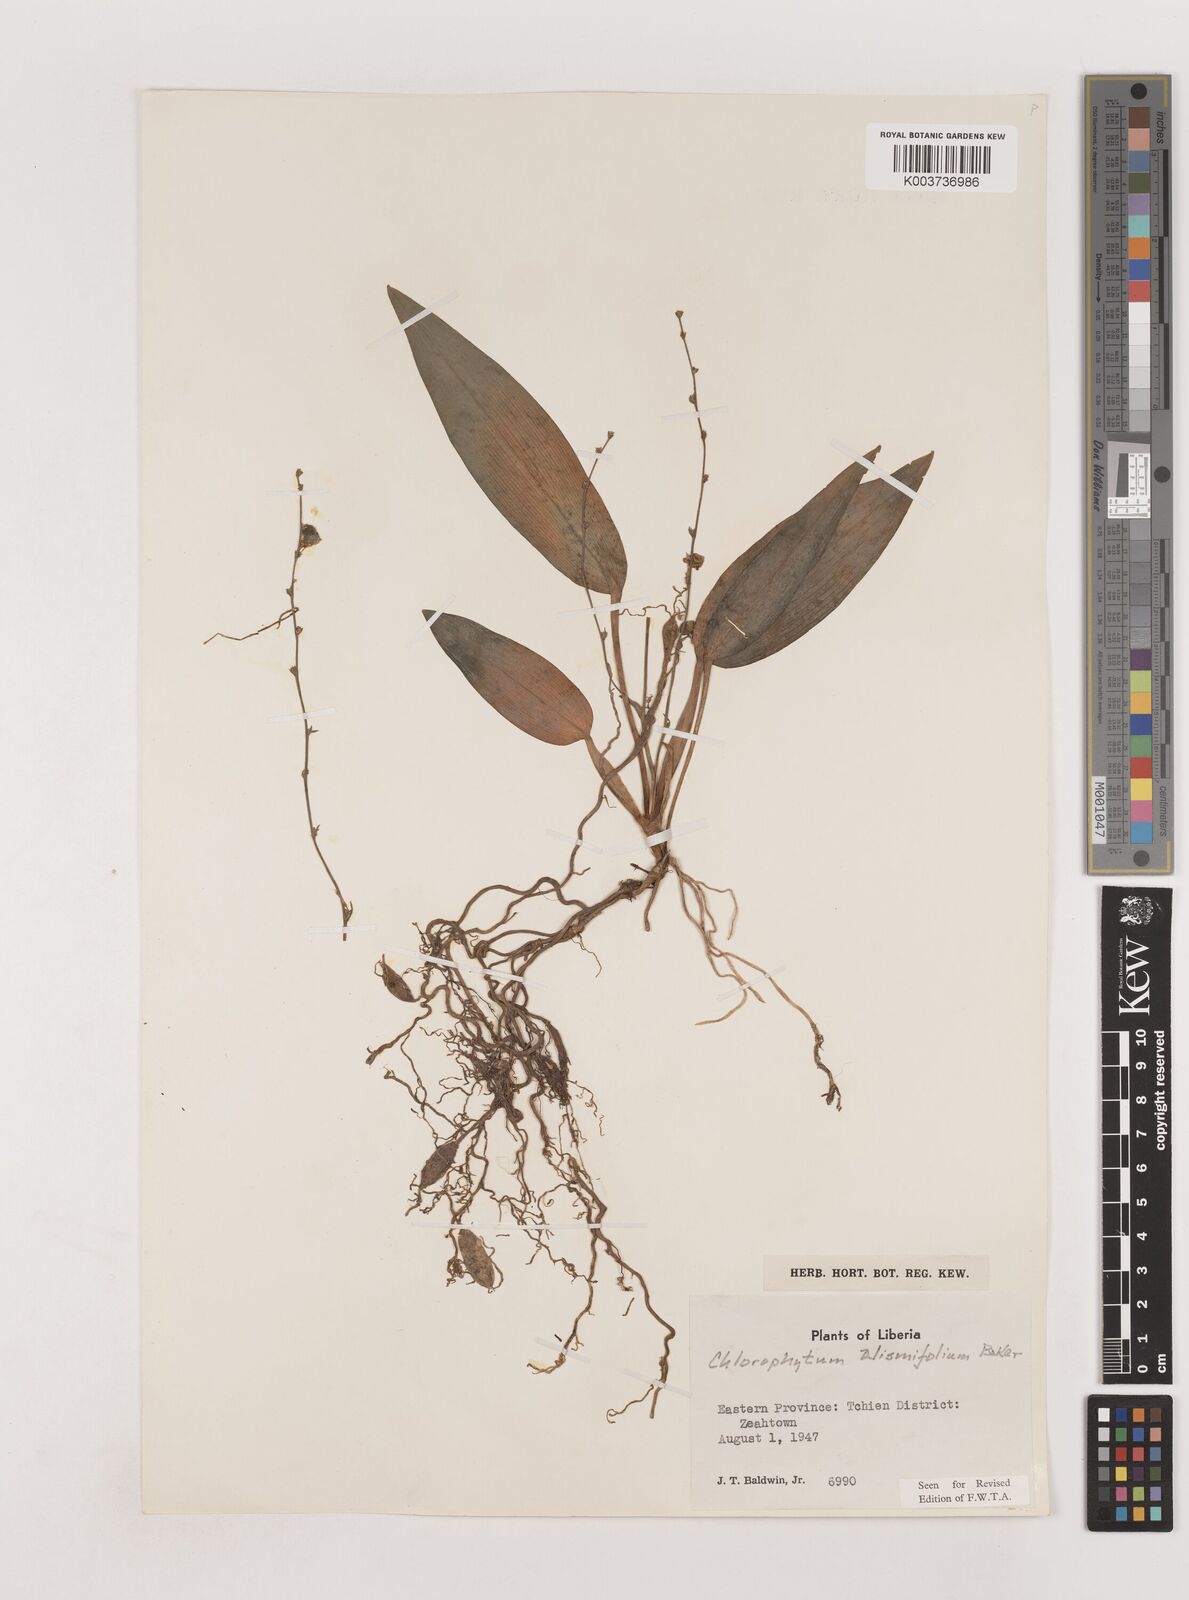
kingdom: Plantae
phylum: Tracheophyta
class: Liliopsida
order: Asparagales
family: Asparagaceae
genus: Chlorophytum
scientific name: Chlorophytum alismifolium
